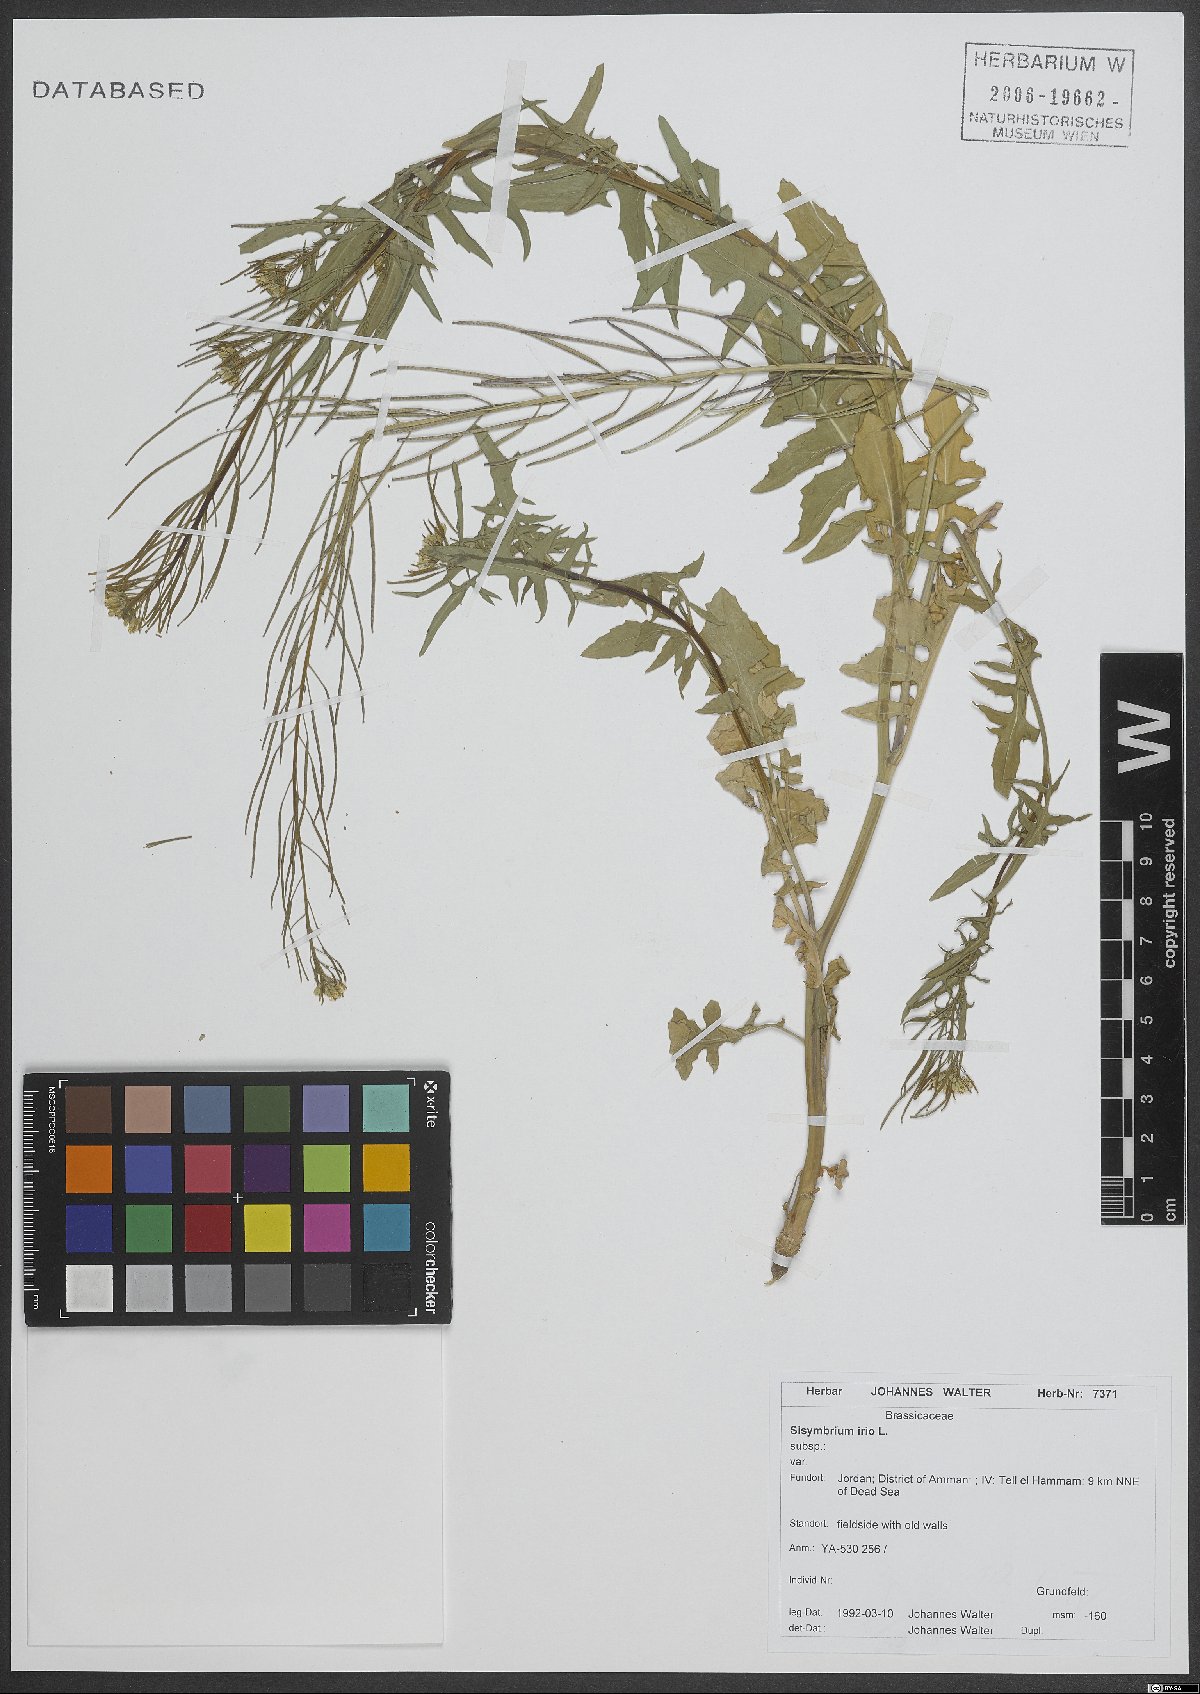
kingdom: Plantae
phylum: Tracheophyta
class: Magnoliopsida
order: Brassicales
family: Brassicaceae
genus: Sisymbrium
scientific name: Sisymbrium irio
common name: London rocket
